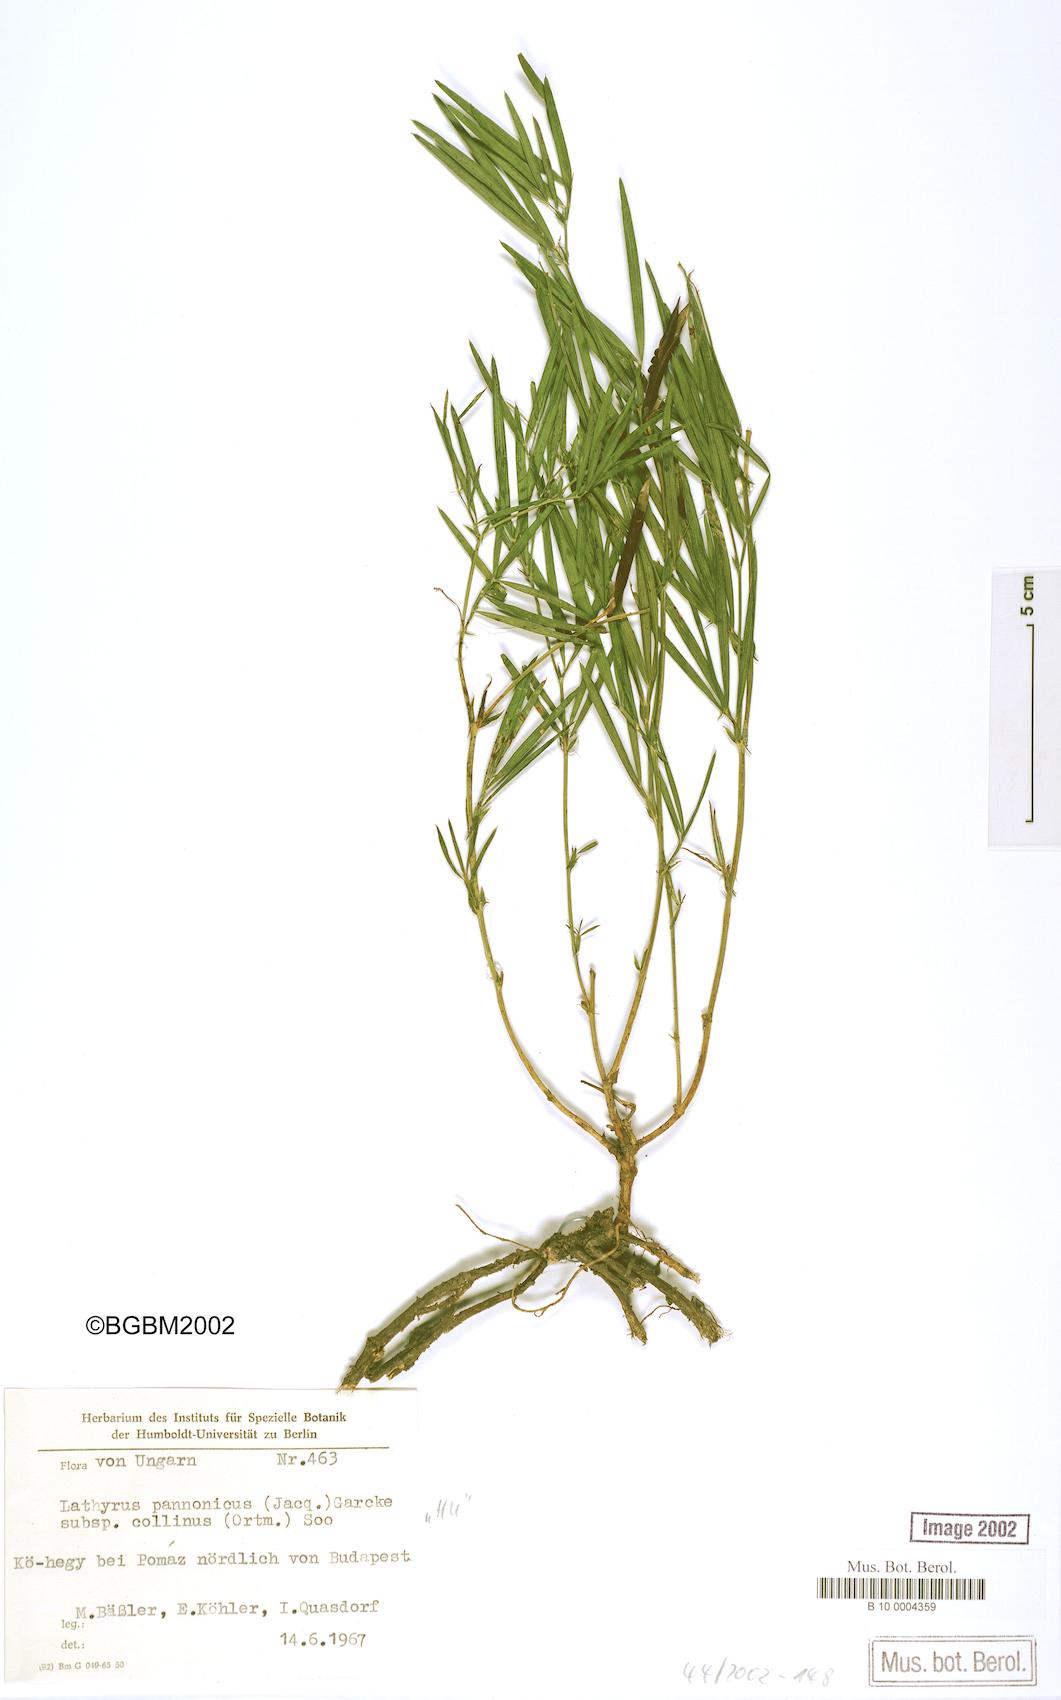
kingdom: Plantae
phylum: Tracheophyta
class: Magnoliopsida
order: Fabales
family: Fabaceae
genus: Lathyrus
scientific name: Lathyrus pannonicus
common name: Pea
